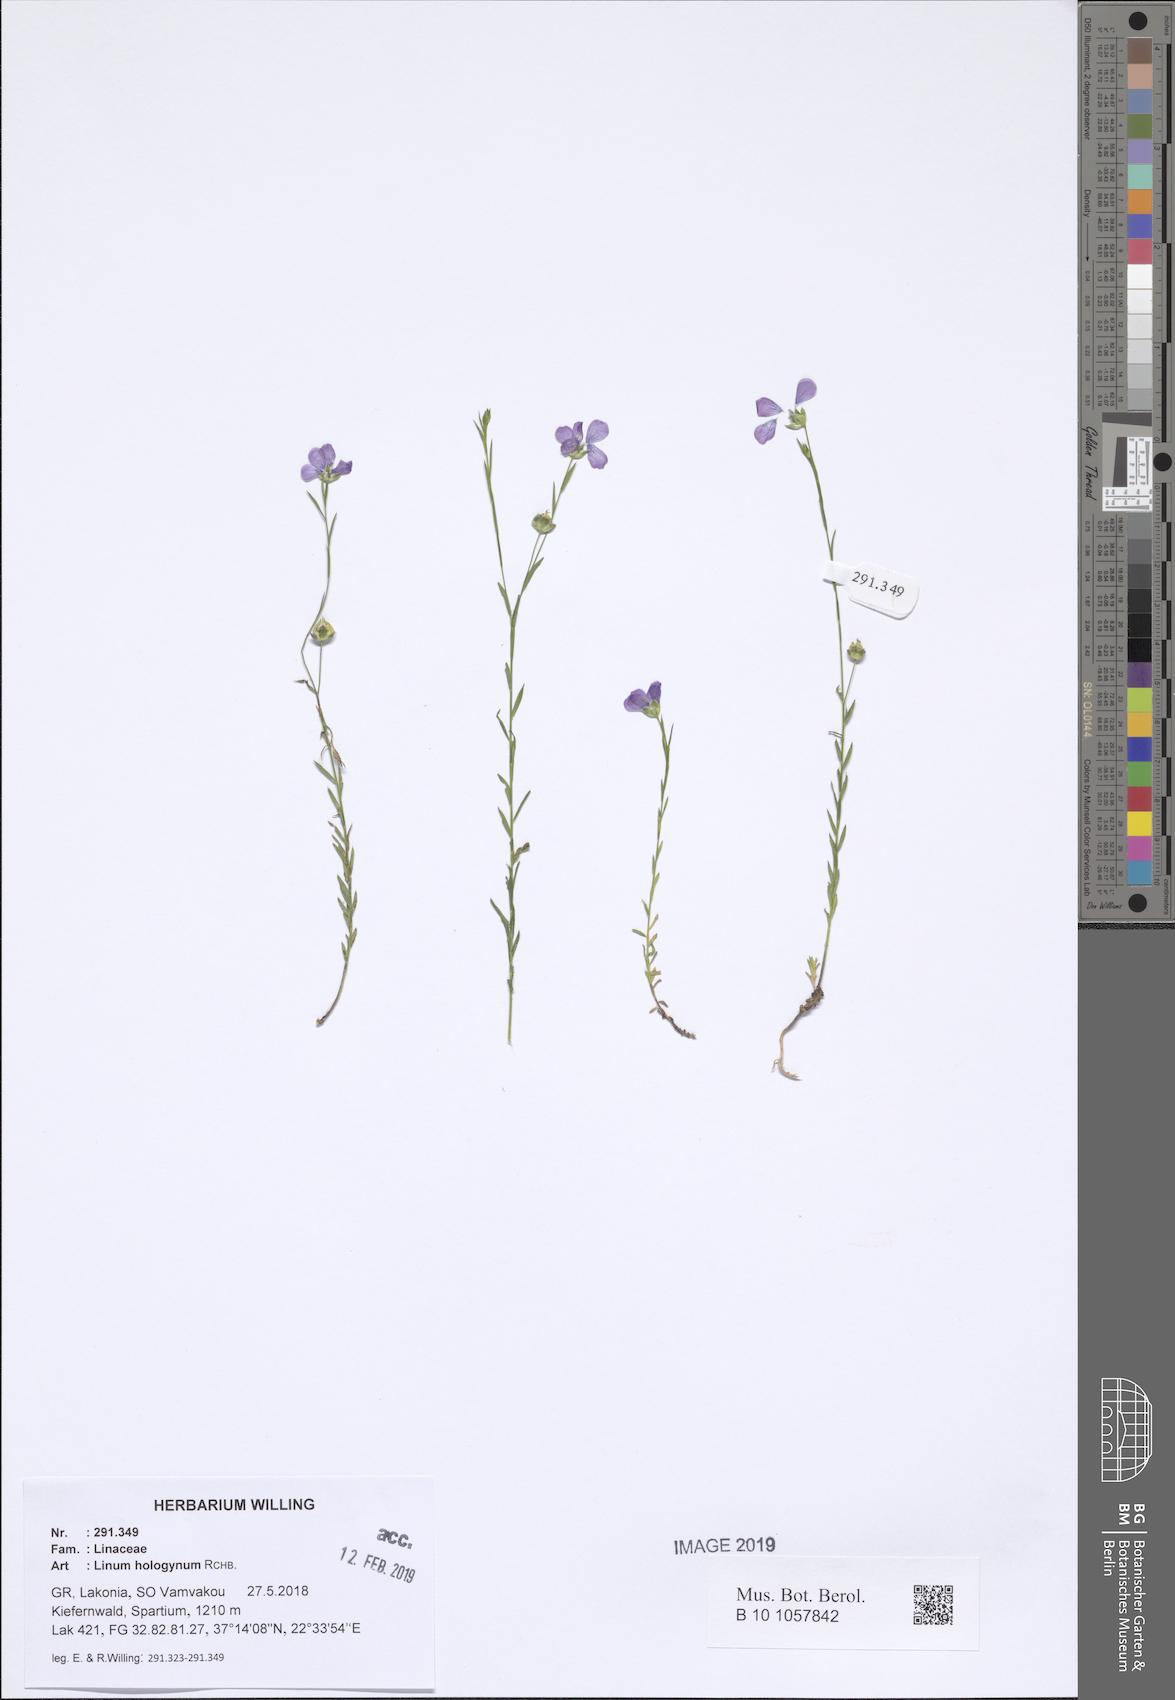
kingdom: Plantae
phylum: Tracheophyta
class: Magnoliopsida
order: Malpighiales
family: Linaceae
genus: Linum
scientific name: Linum bienne
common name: Pale flax
